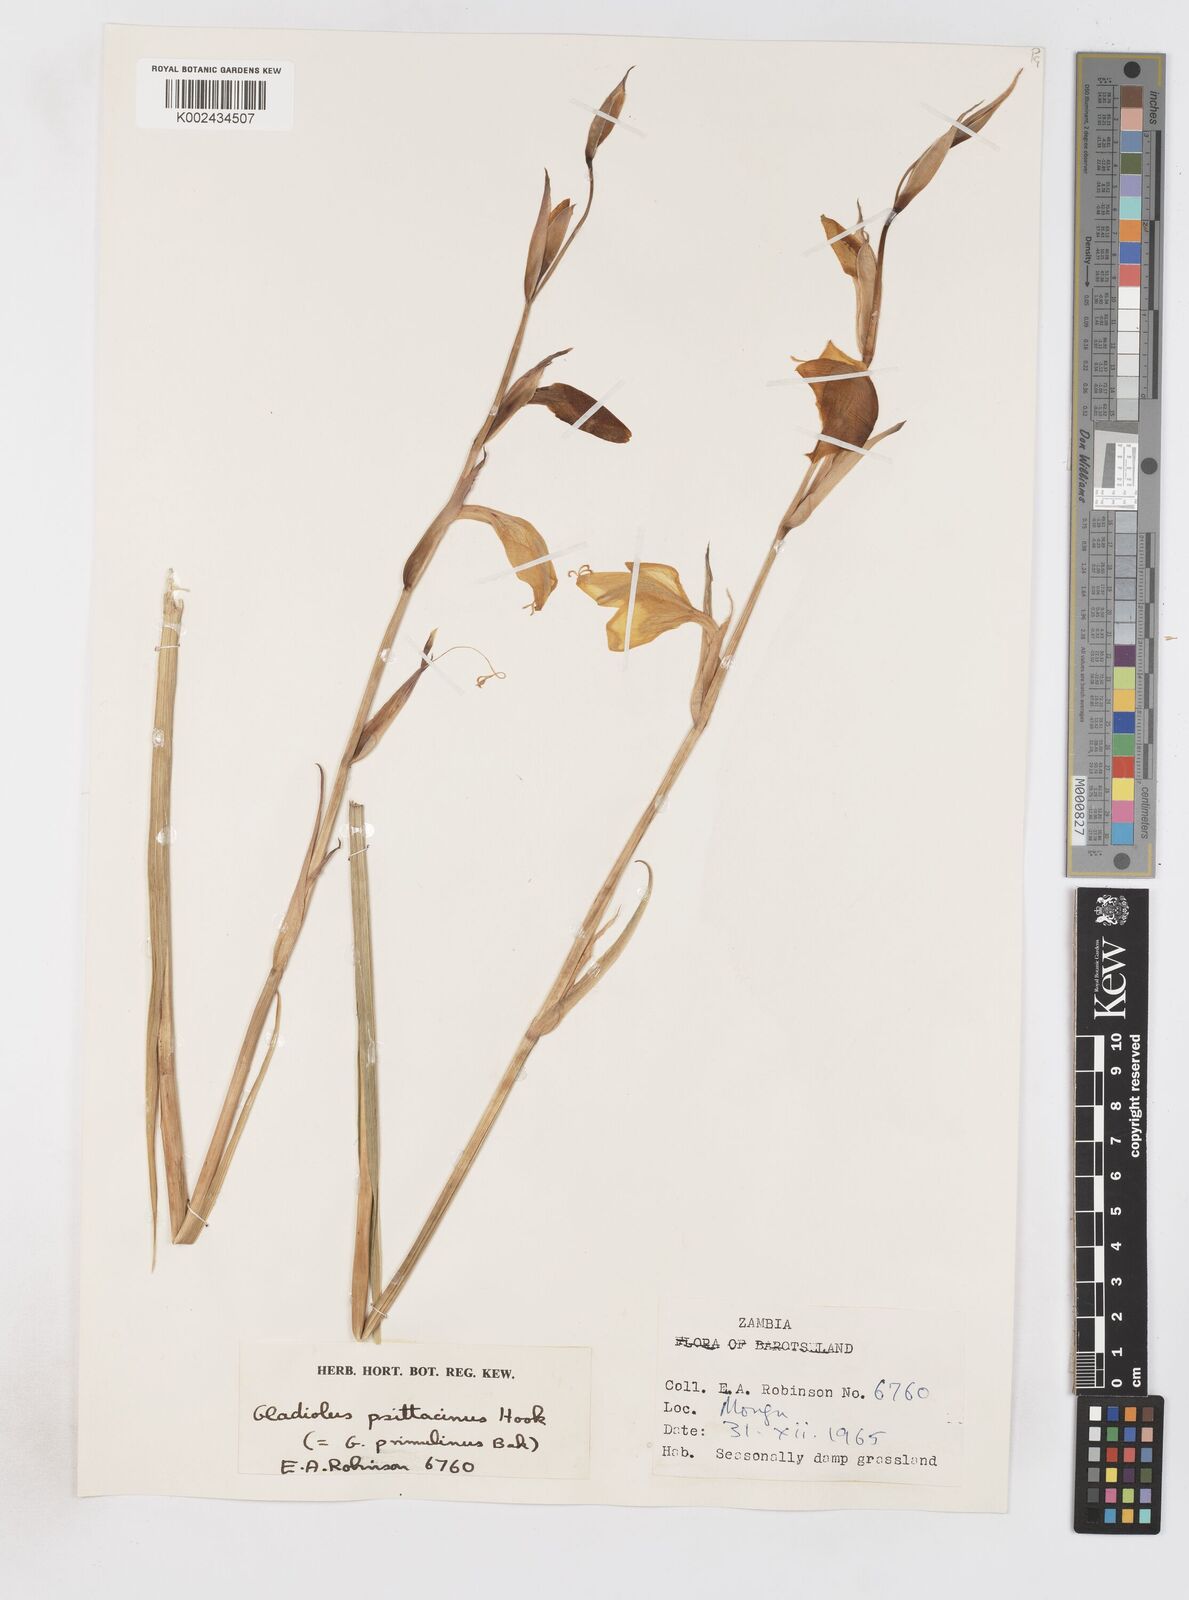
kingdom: Plantae
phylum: Tracheophyta
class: Liliopsida
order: Asparagales
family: Iridaceae
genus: Gladiolus
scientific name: Gladiolus dalenii
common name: Cornflag
